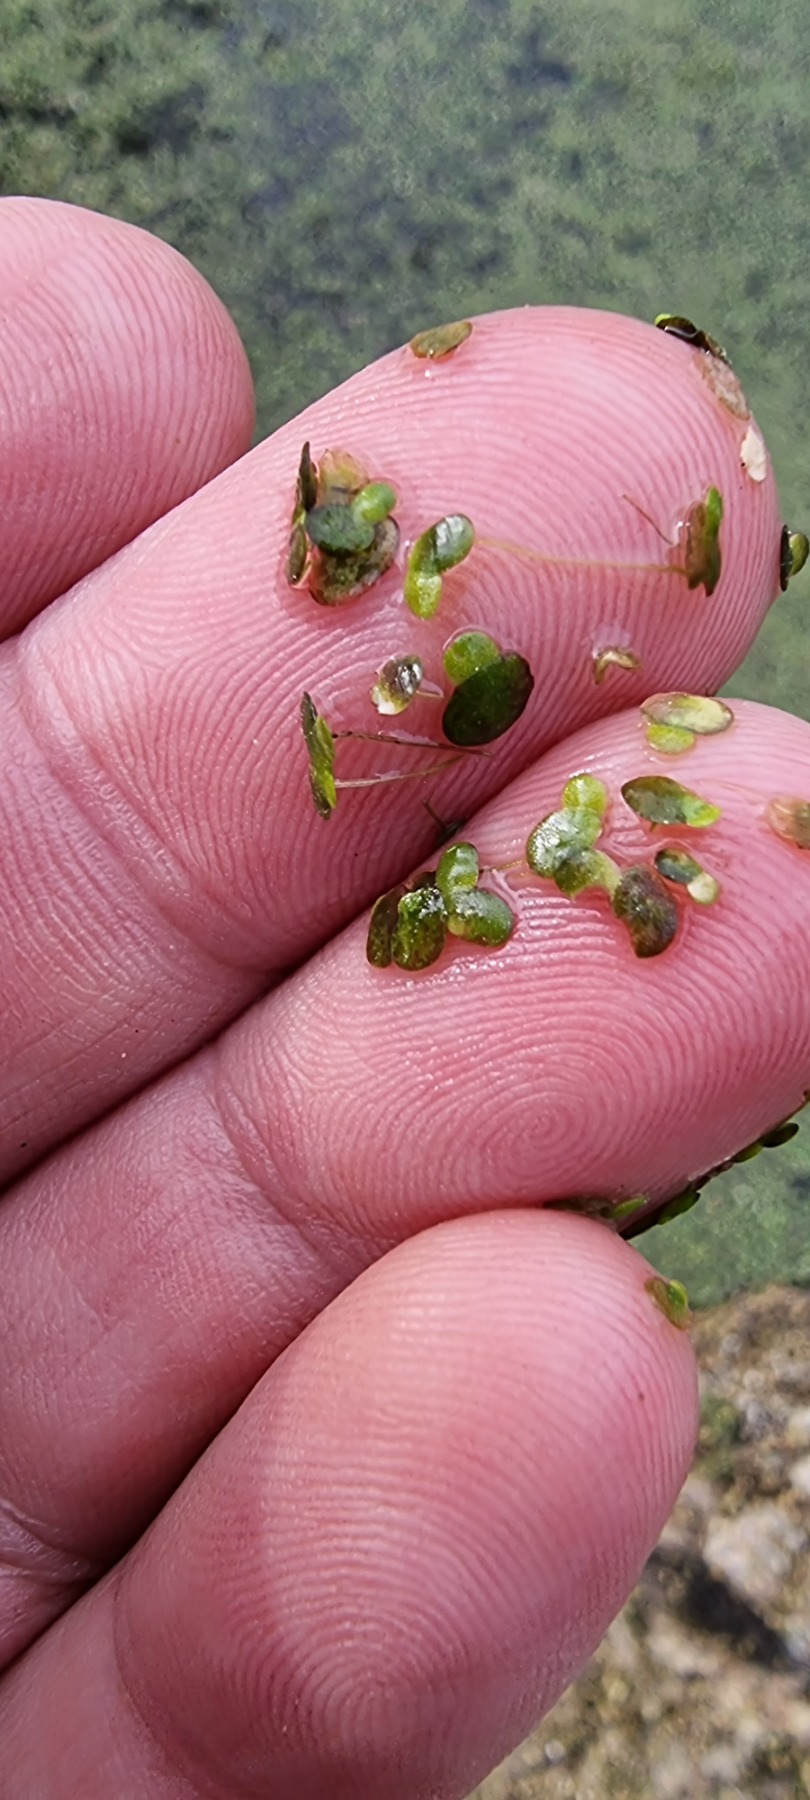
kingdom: Plantae
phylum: Tracheophyta
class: Liliopsida
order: Alismatales
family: Araceae
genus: Lemna
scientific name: Lemna minor
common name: Liden andemad
